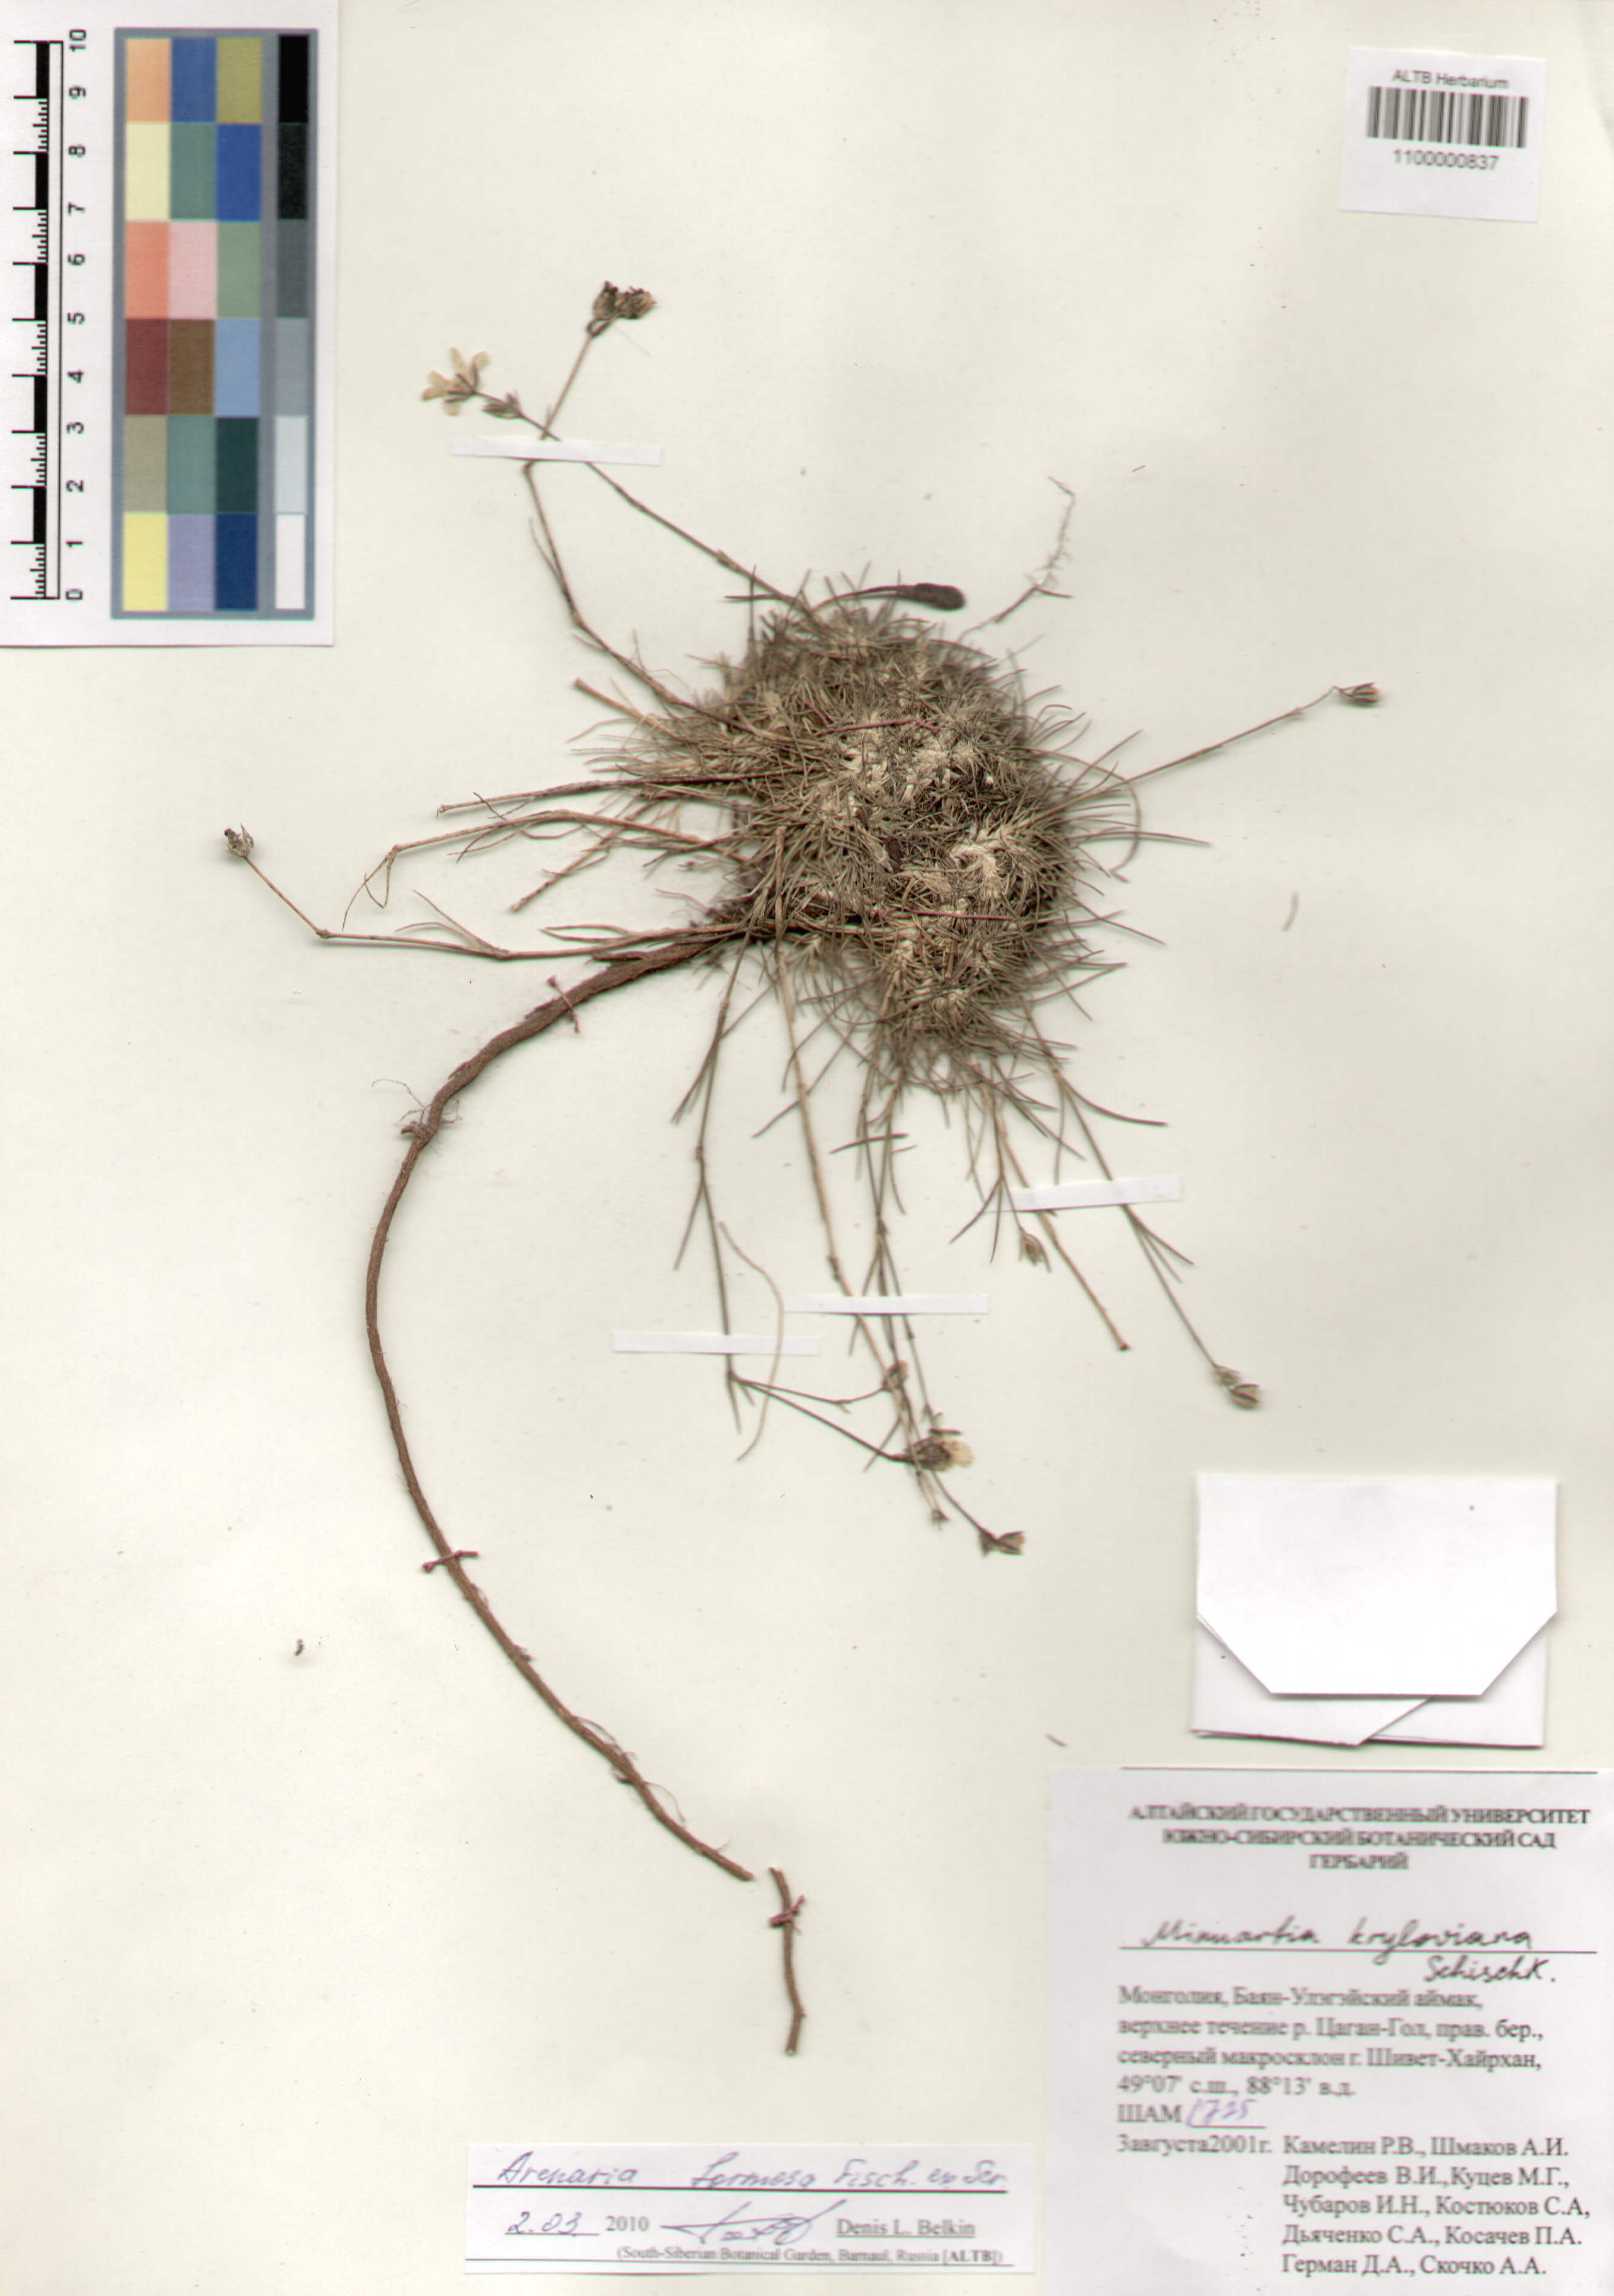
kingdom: Plantae
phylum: Tracheophyta
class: Magnoliopsida
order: Caryophyllales
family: Caryophyllaceae
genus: Eremogone
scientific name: Eremogone formosa
